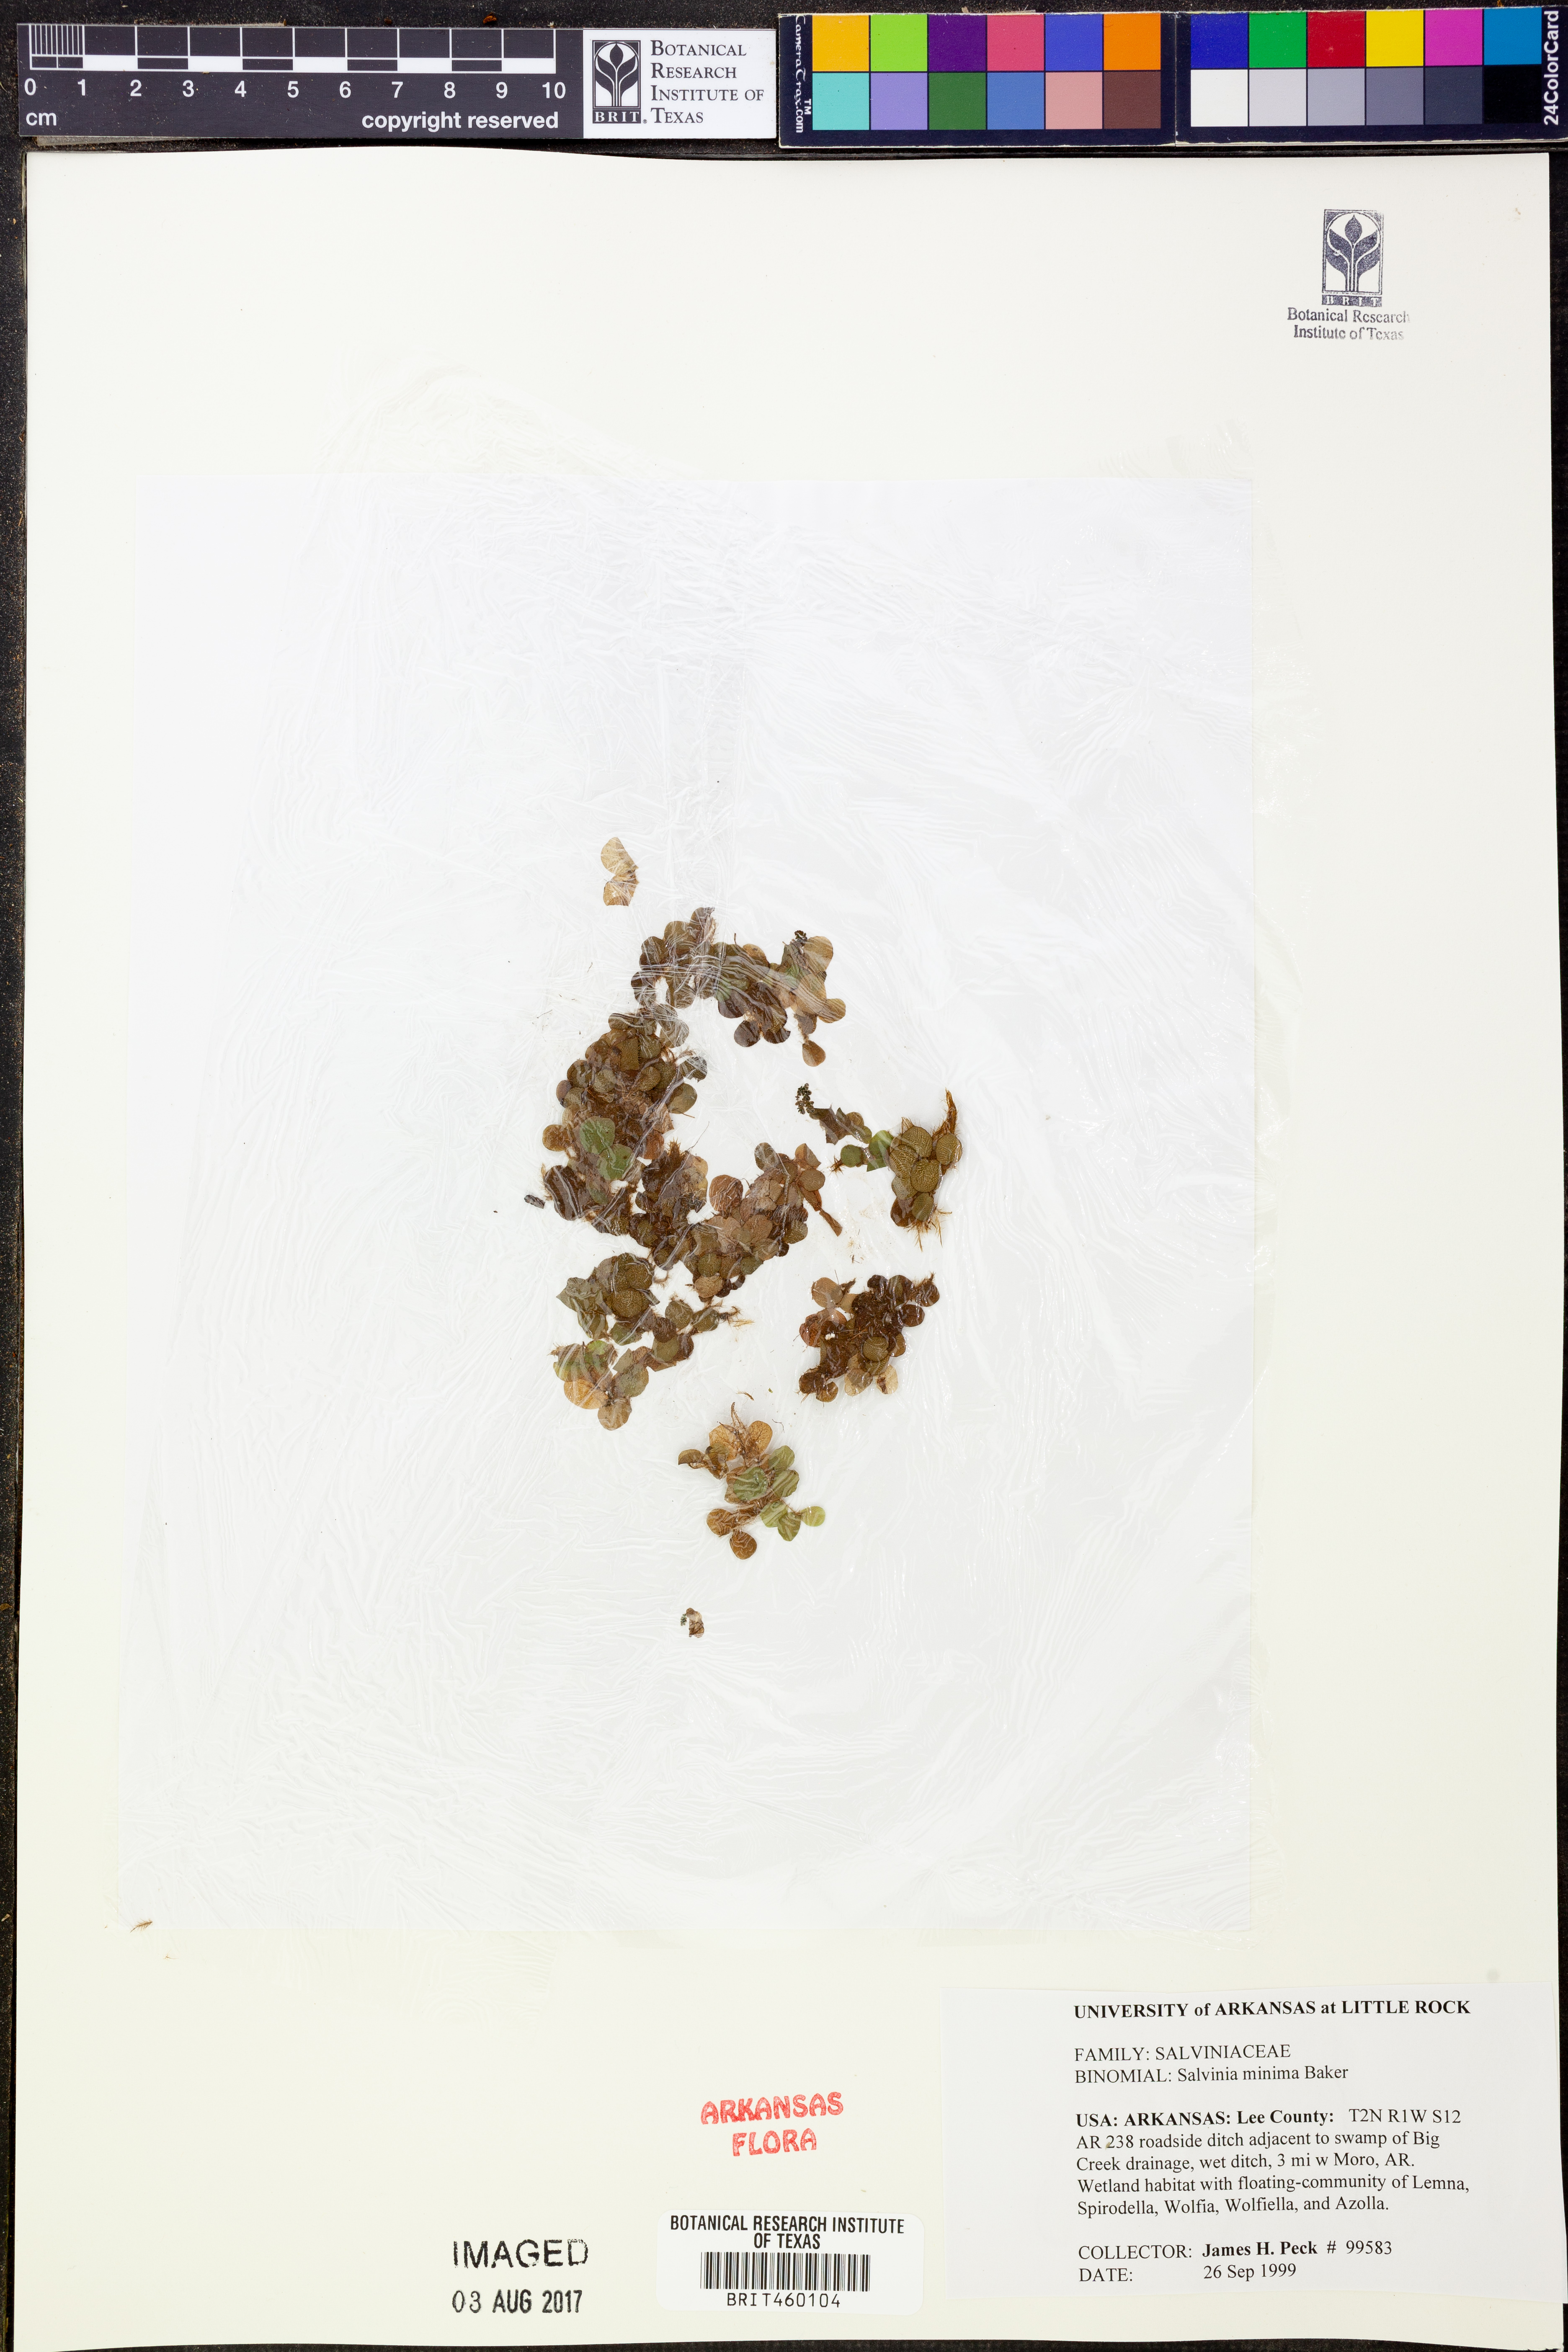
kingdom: Plantae
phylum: Tracheophyta
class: Polypodiopsida
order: Salviniales
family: Salviniaceae
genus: Salvinia
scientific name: Salvinia minima
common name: Water spangles
